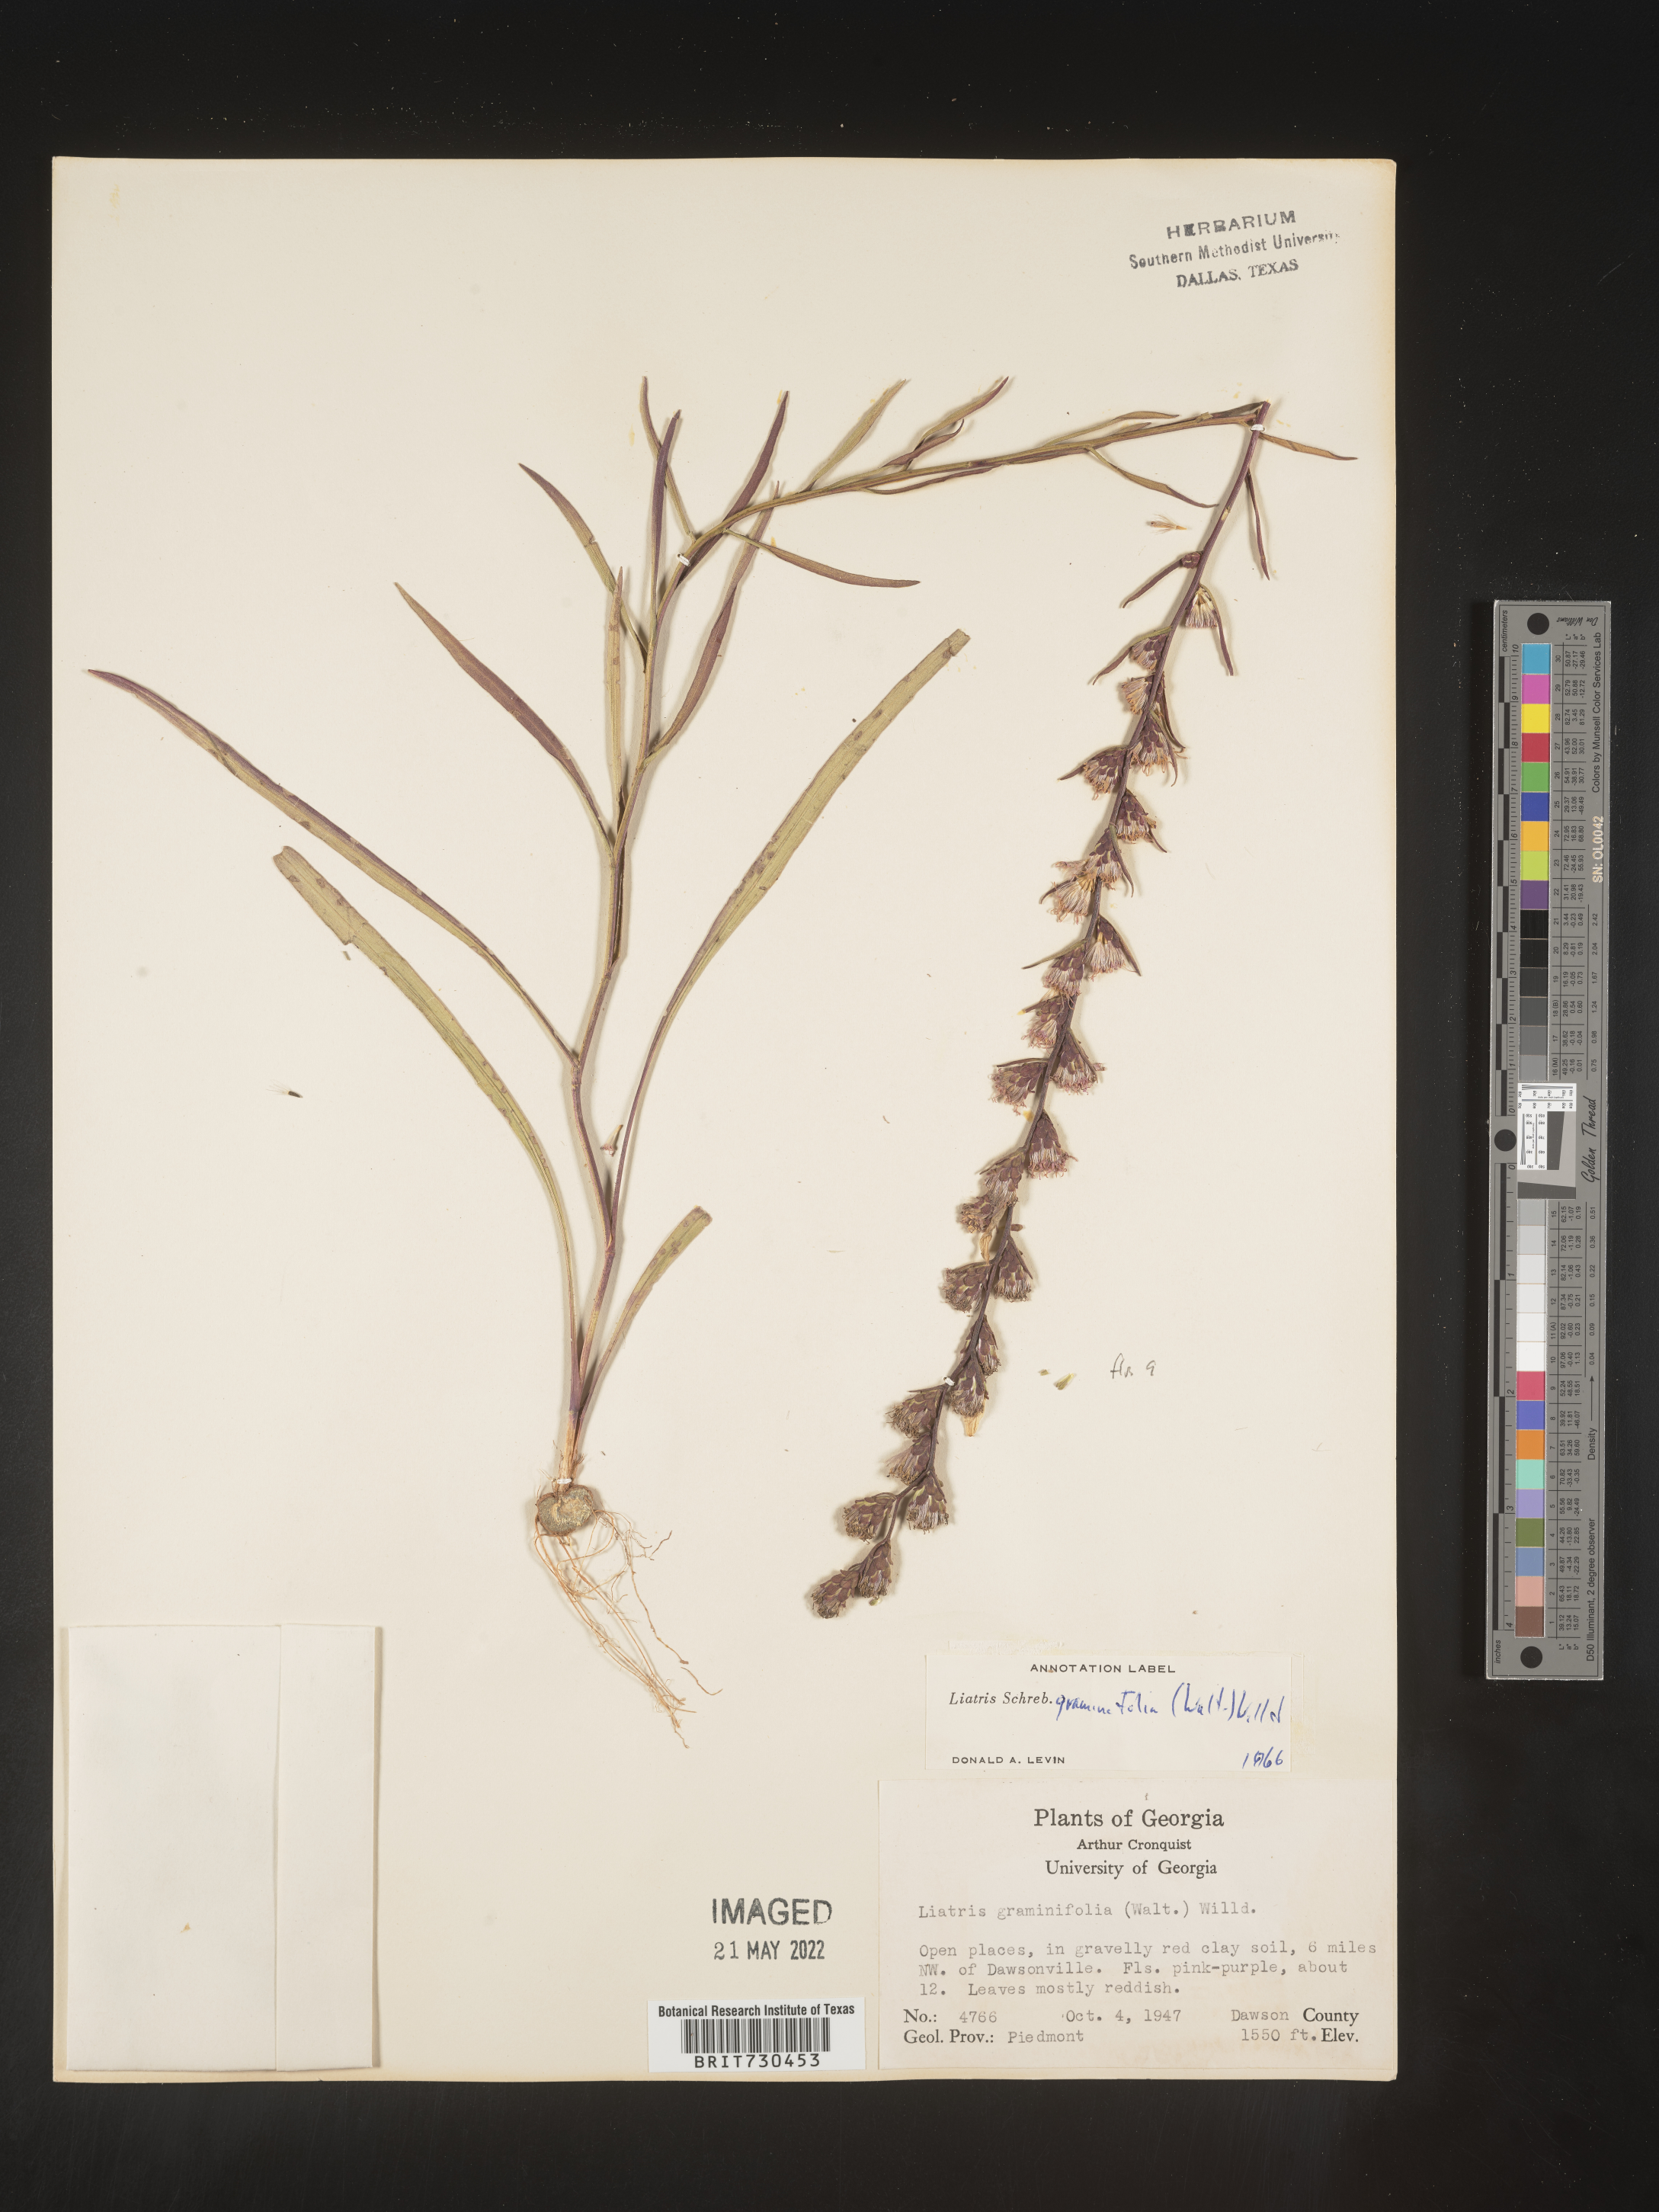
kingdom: Plantae
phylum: Tracheophyta
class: Magnoliopsida
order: Asterales
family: Asteraceae
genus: Liatris
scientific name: Liatris elegantula
